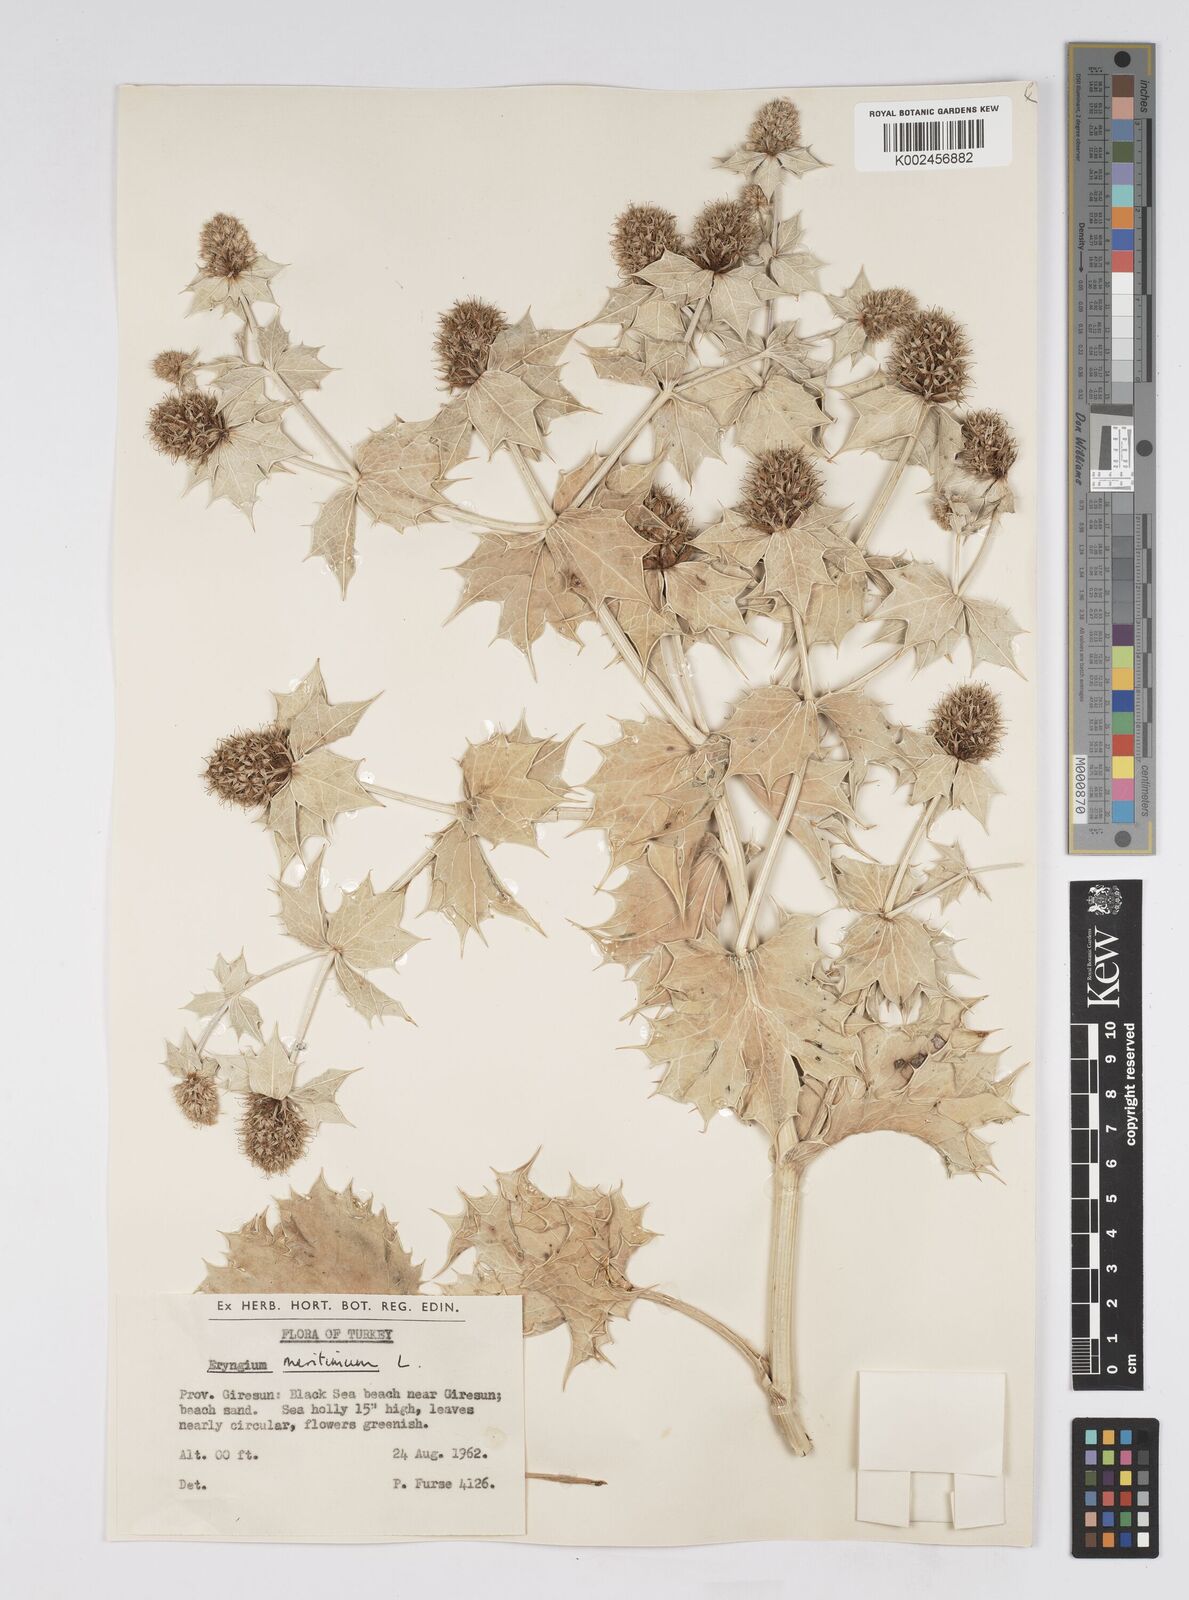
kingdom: Plantae
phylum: Tracheophyta
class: Magnoliopsida
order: Apiales
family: Apiaceae
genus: Eryngium
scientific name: Eryngium maritimum
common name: Sea-holly
